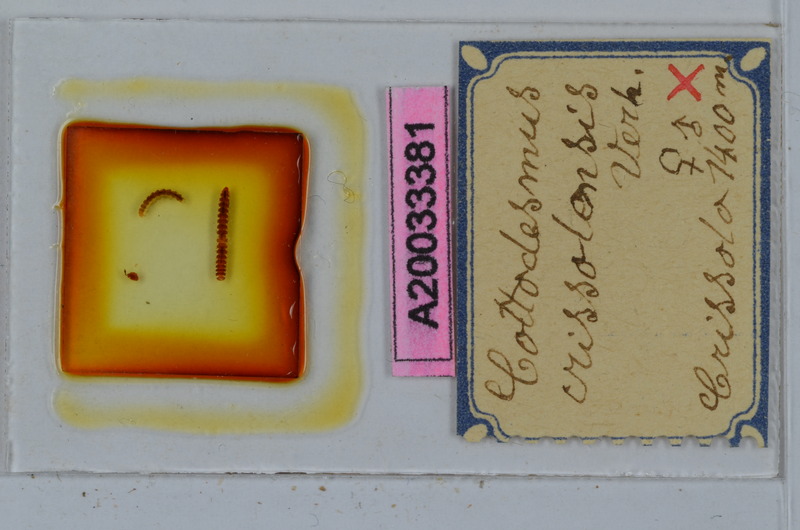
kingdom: Animalia
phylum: Arthropoda
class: Diplopoda
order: Polydesmida
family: Trichopolydesmidae
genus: Cottodesmus
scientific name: Cottodesmus crissolensis
